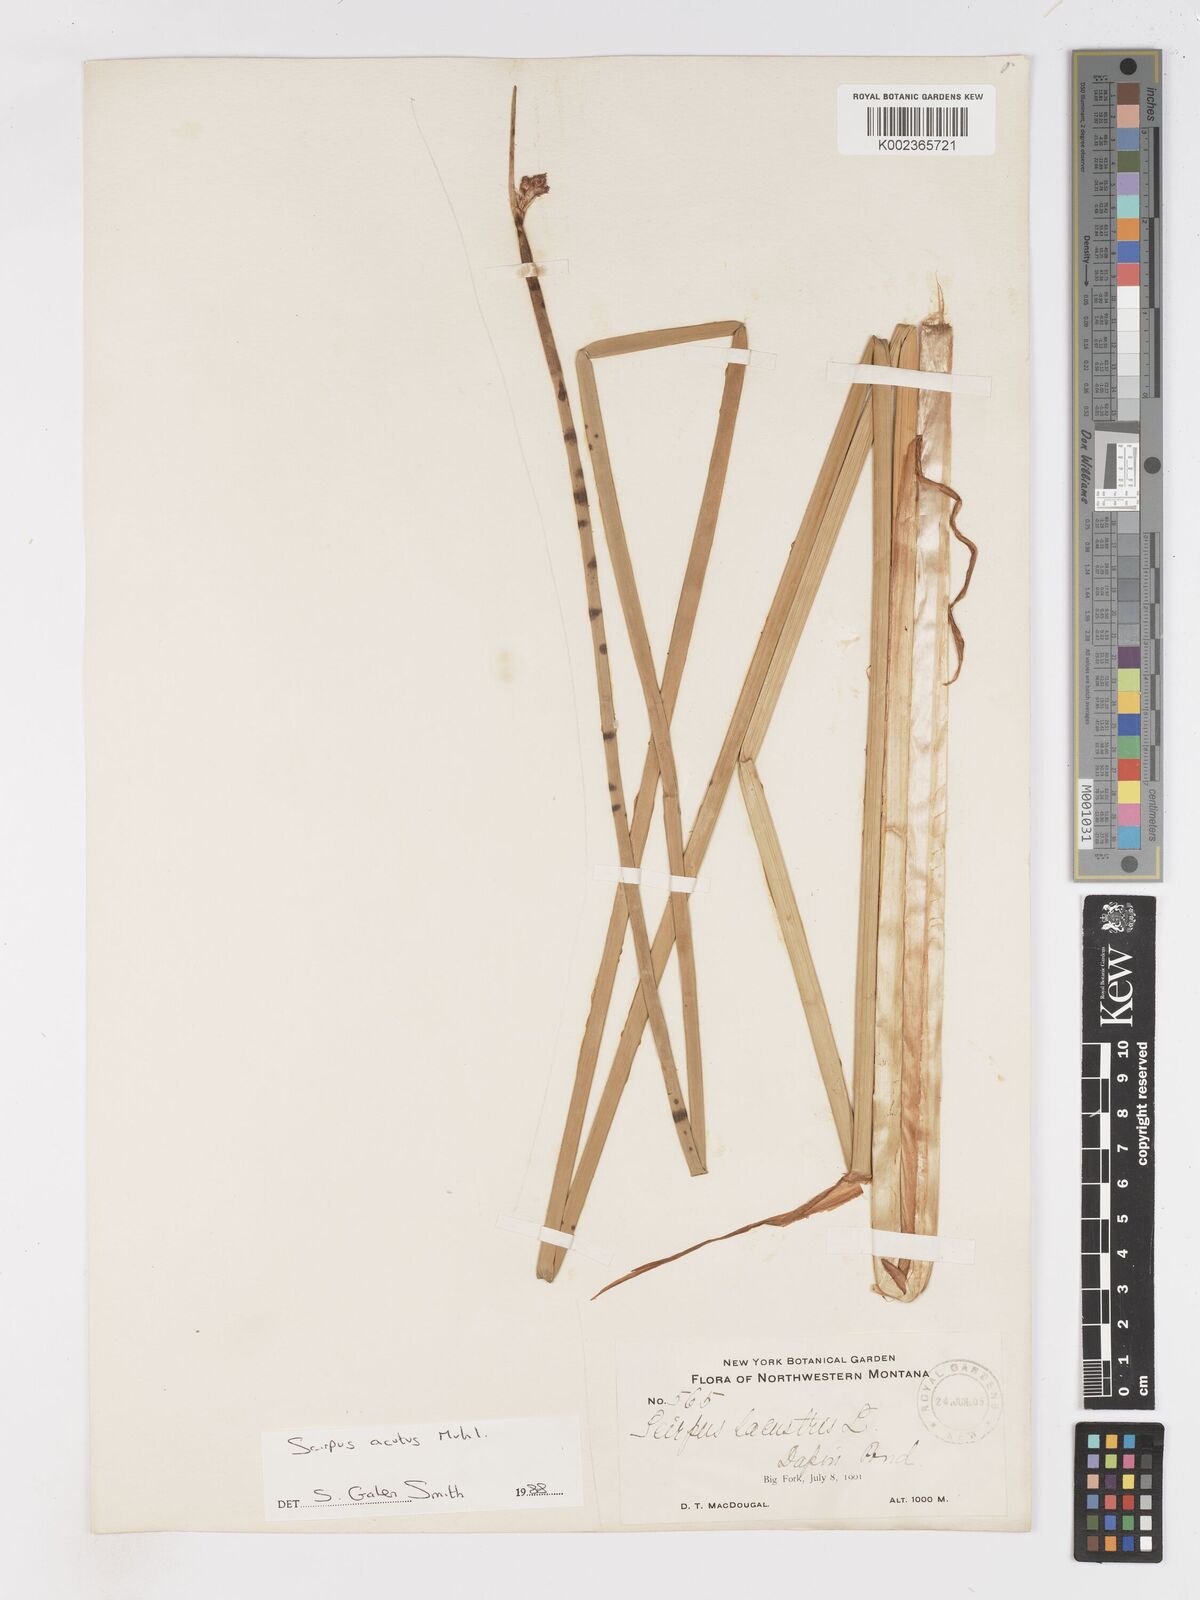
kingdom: Plantae
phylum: Tracheophyta
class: Liliopsida
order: Poales
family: Cyperaceae
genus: Schoenoplectus
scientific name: Schoenoplectus lacustris
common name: Common club-rush
